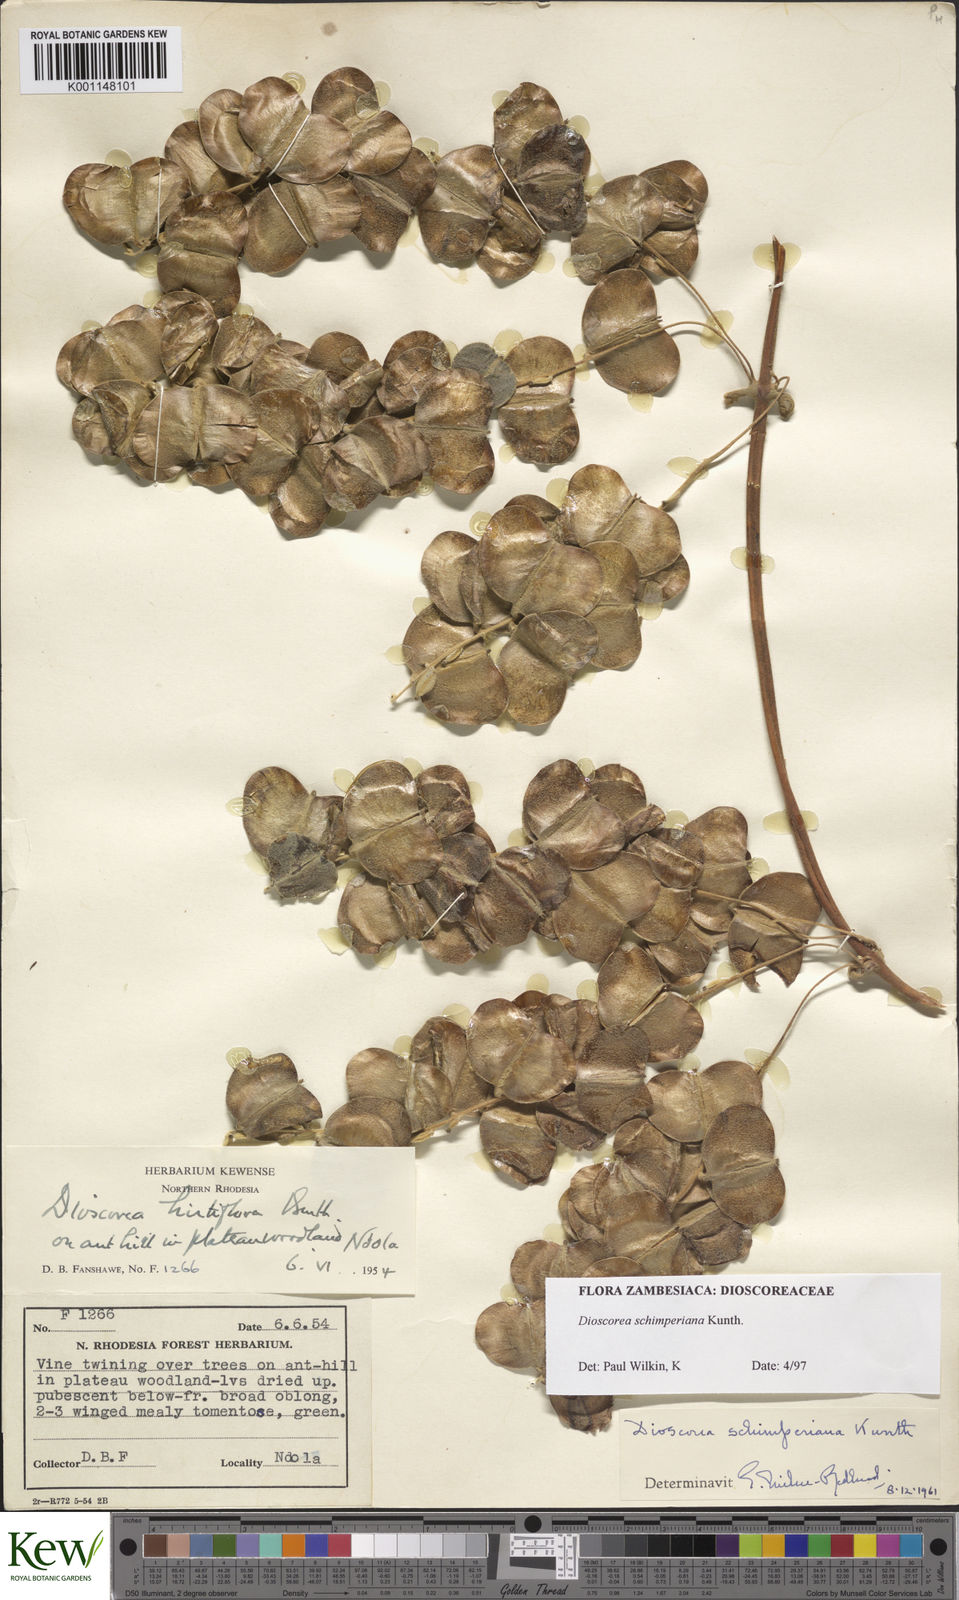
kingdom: Plantae
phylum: Tracheophyta
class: Liliopsida
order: Dioscoreales
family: Dioscoreaceae
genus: Dioscorea
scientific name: Dioscorea schimperiana
